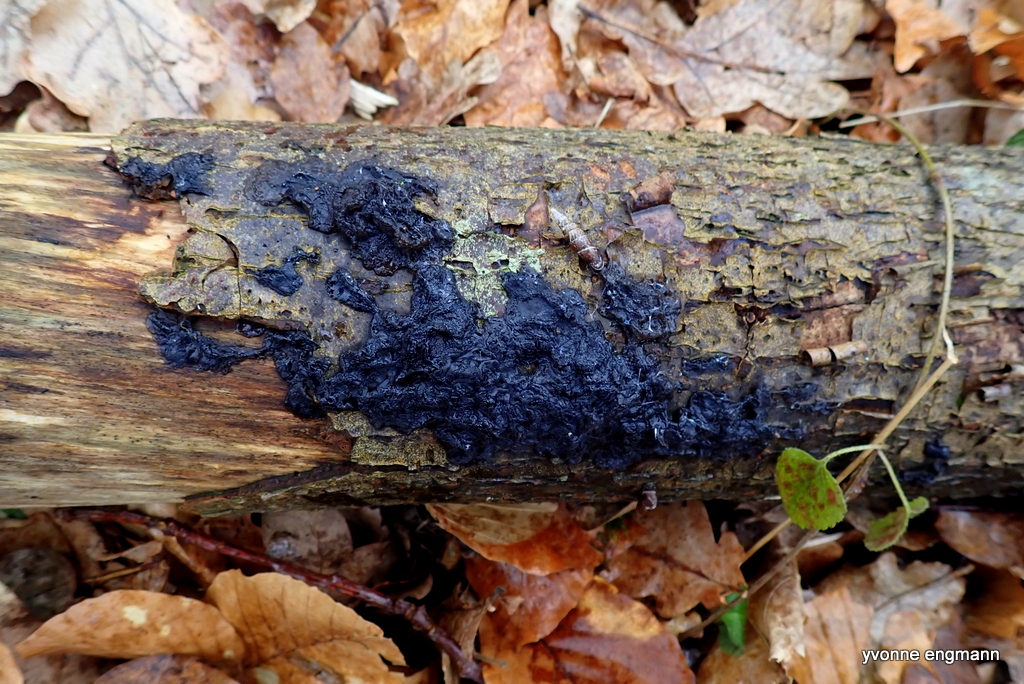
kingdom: Fungi
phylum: Basidiomycota
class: Agaricomycetes
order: Auriculariales
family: Auriculariaceae
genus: Exidia
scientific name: Exidia nigricans
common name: almindelig bævretop
